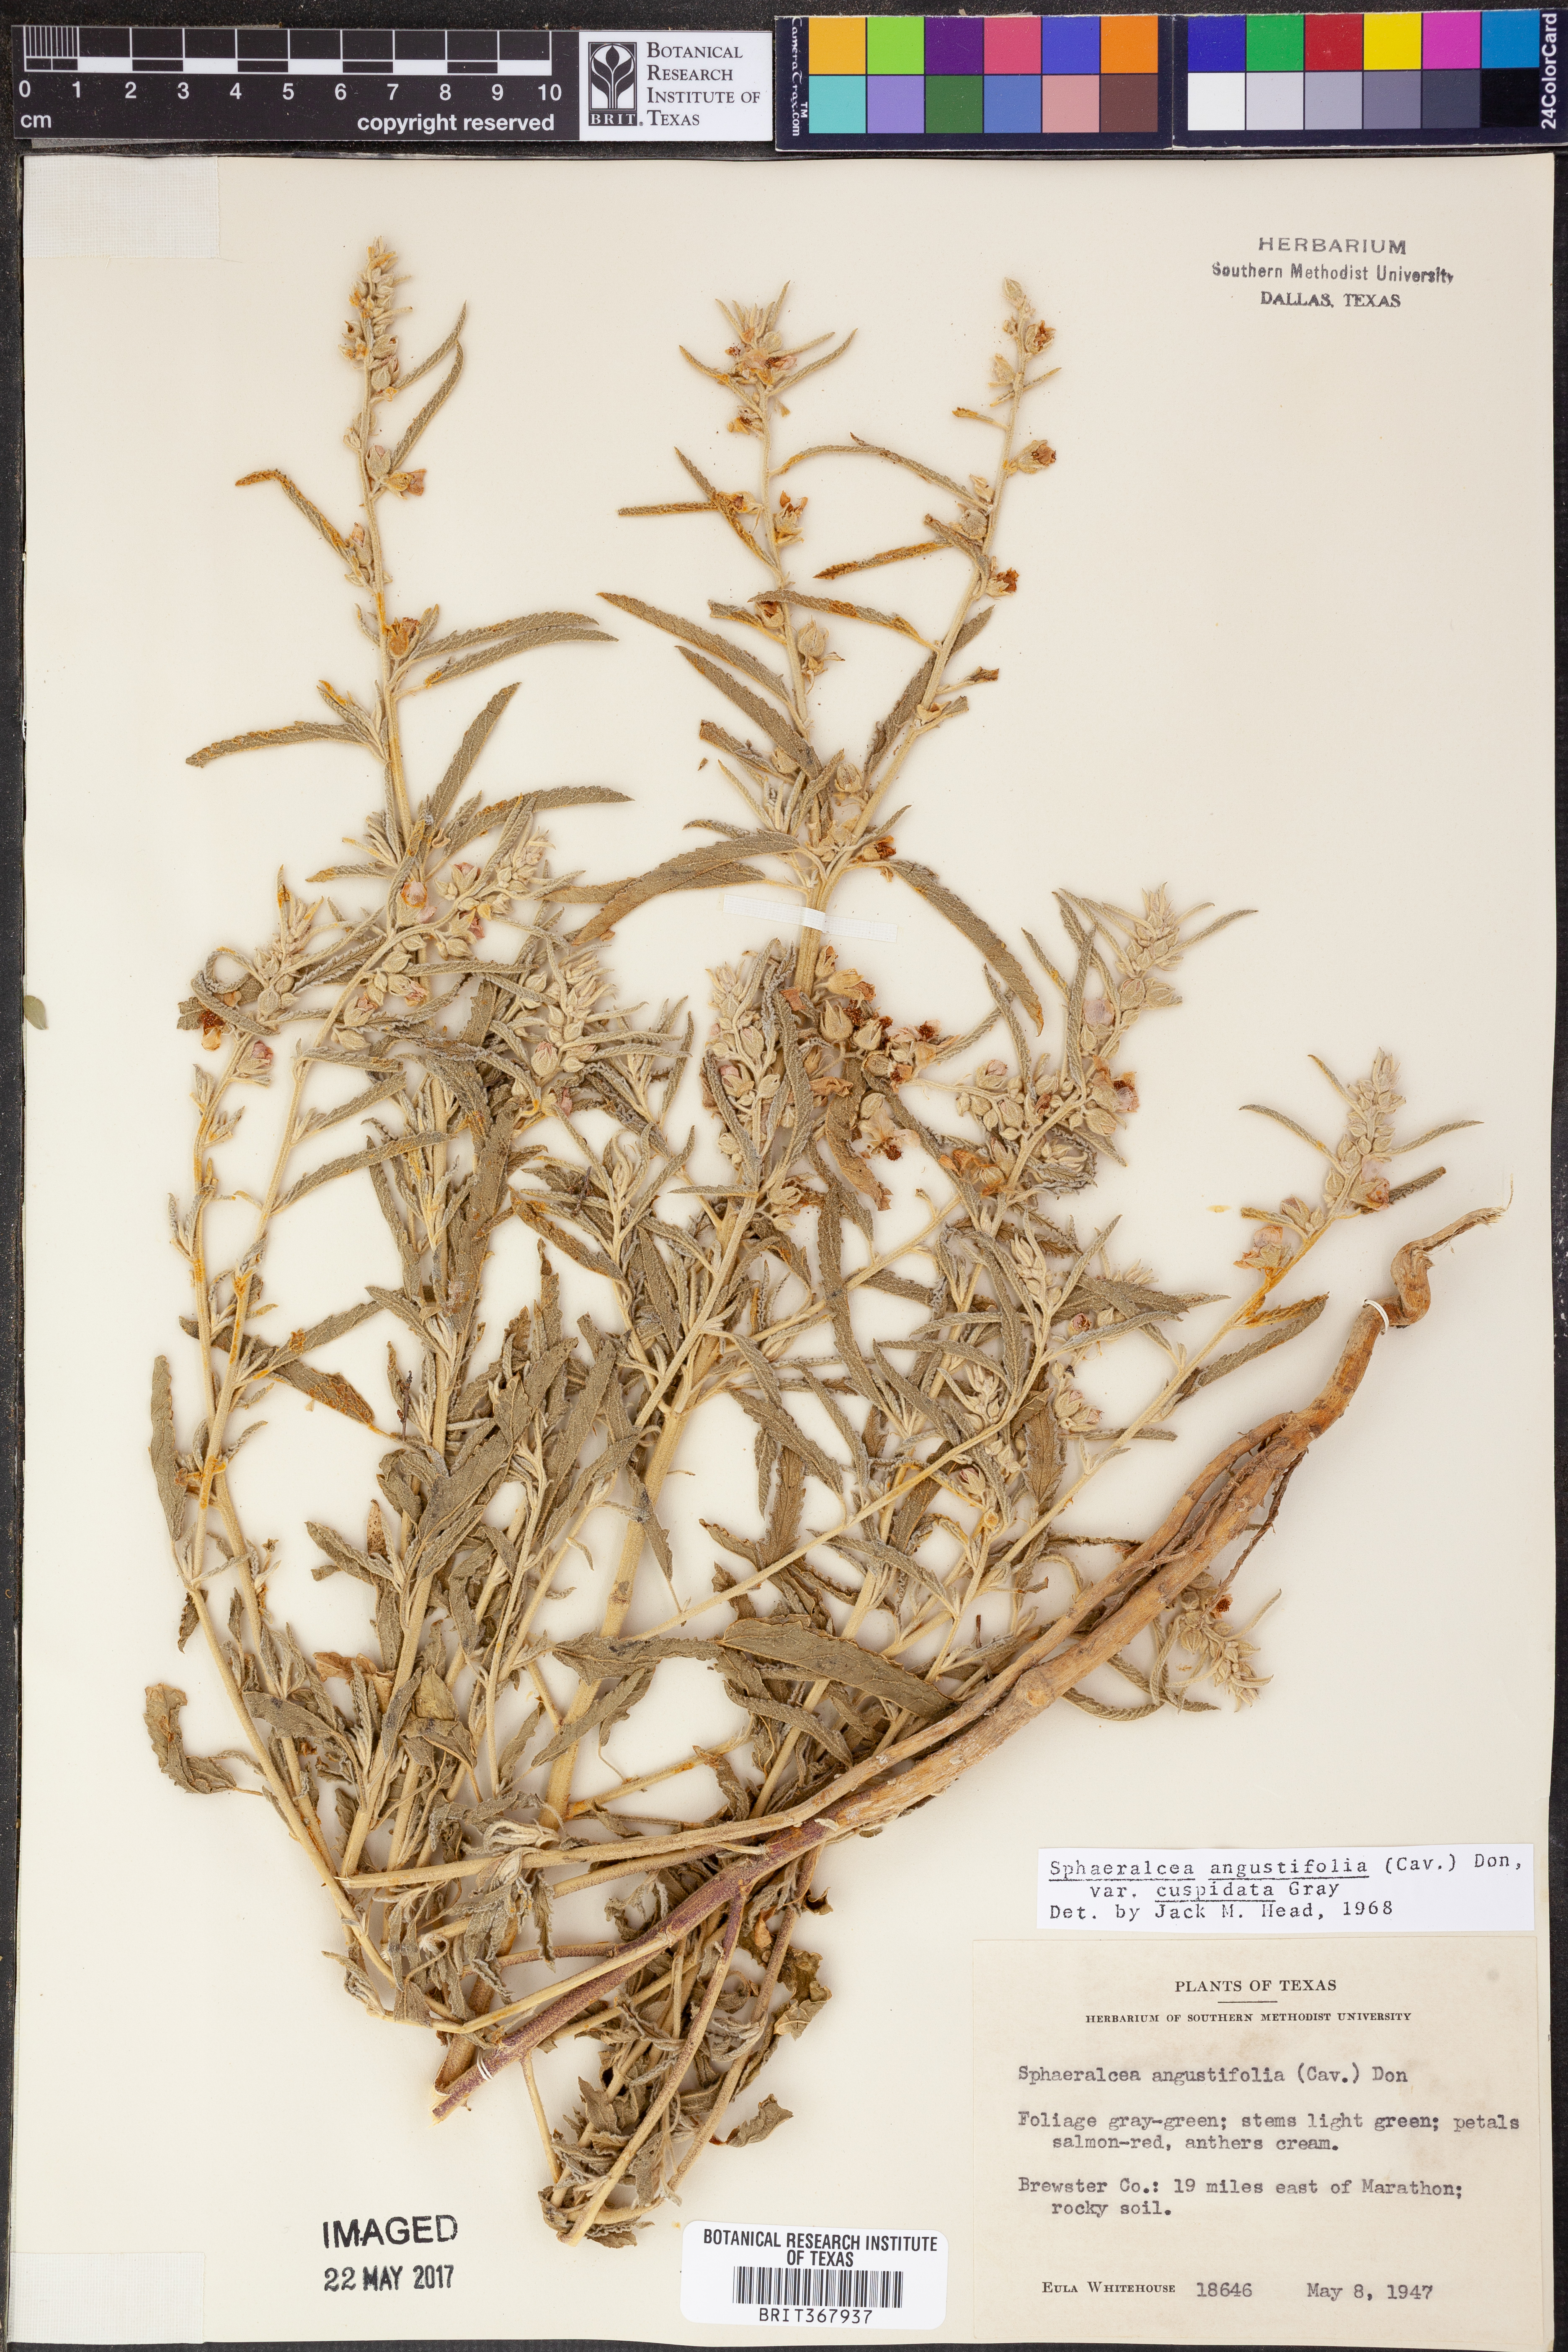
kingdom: Plantae
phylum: Tracheophyta
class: Magnoliopsida
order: Malvales
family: Malvaceae
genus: Sphaeralcea
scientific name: Sphaeralcea angustifolia
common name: Copper globe-mallow
